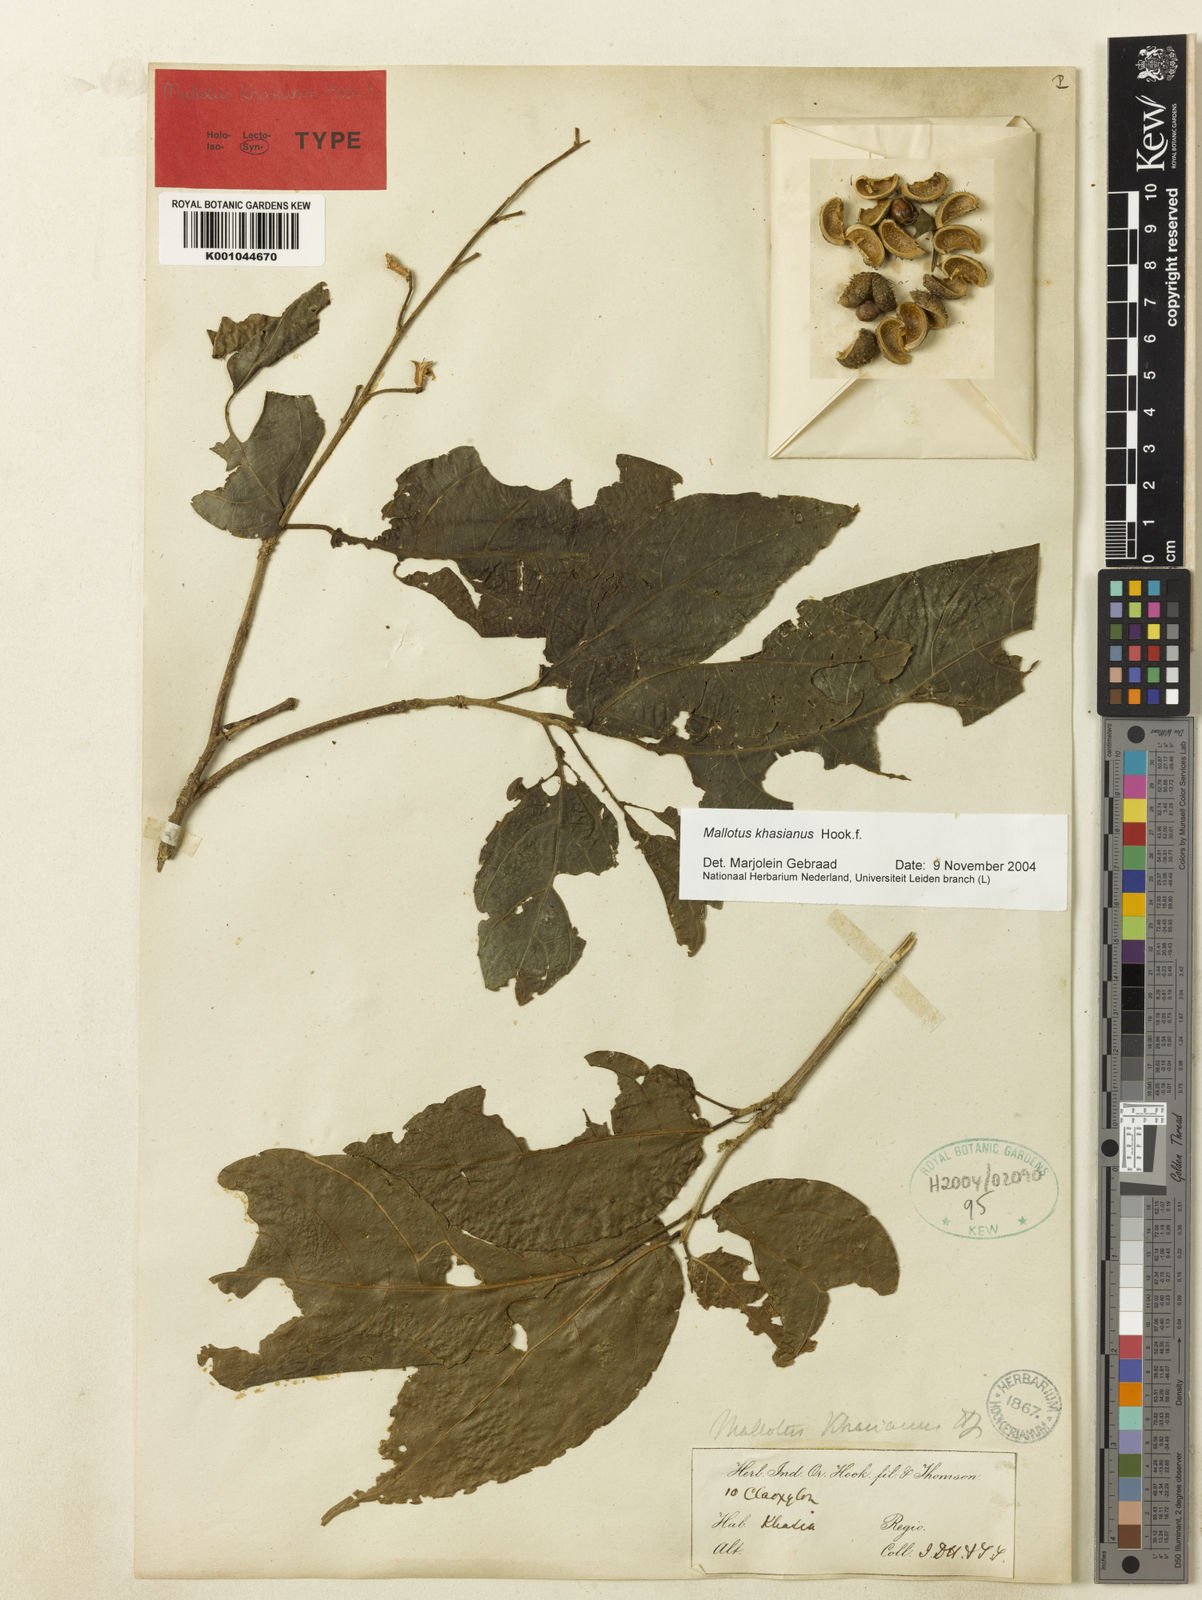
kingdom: Plantae
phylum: Tracheophyta
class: Magnoliopsida
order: Malpighiales
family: Euphorbiaceae
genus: Mallotus
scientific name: Mallotus khasianus
